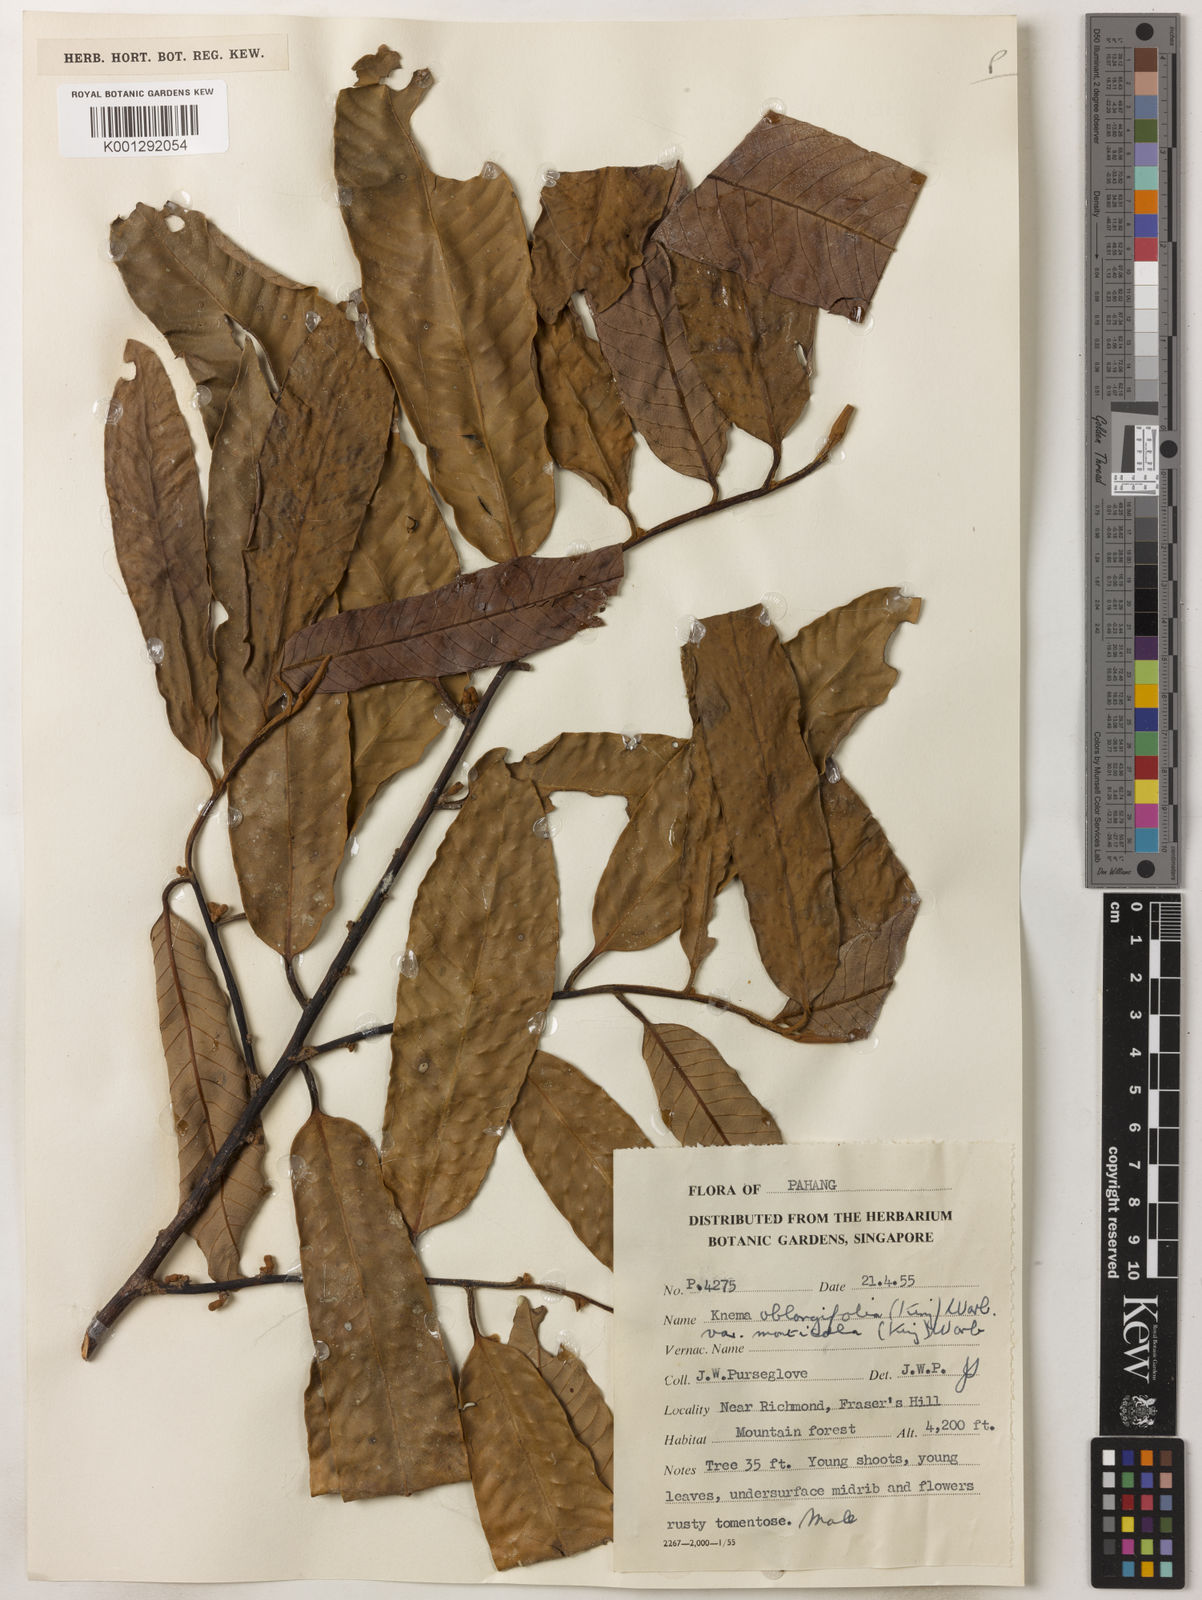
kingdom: Plantae
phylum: Tracheophyta
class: Magnoliopsida
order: Magnoliales
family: Myristicaceae
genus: Knema
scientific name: Knema
